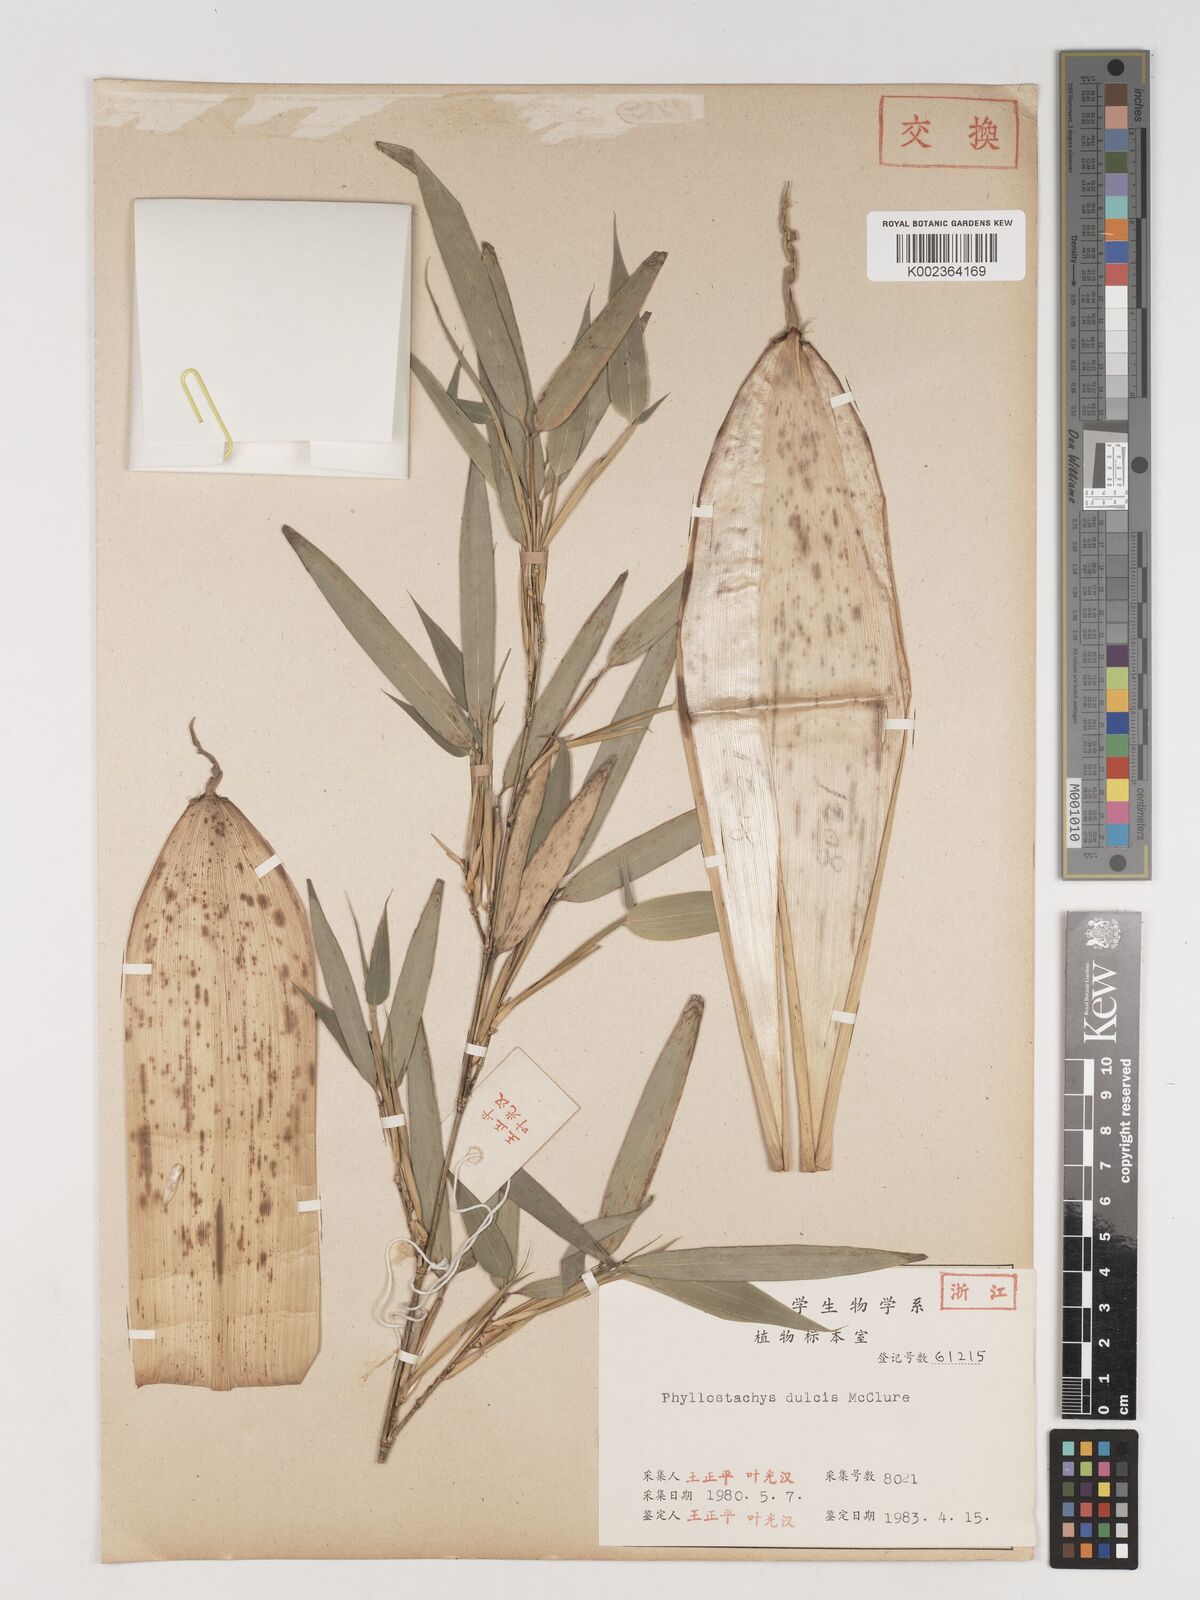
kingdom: Plantae
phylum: Tracheophyta
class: Liliopsida
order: Poales
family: Poaceae
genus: Phyllostachys
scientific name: Phyllostachys dulcis
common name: Sweetshoot bamboo
